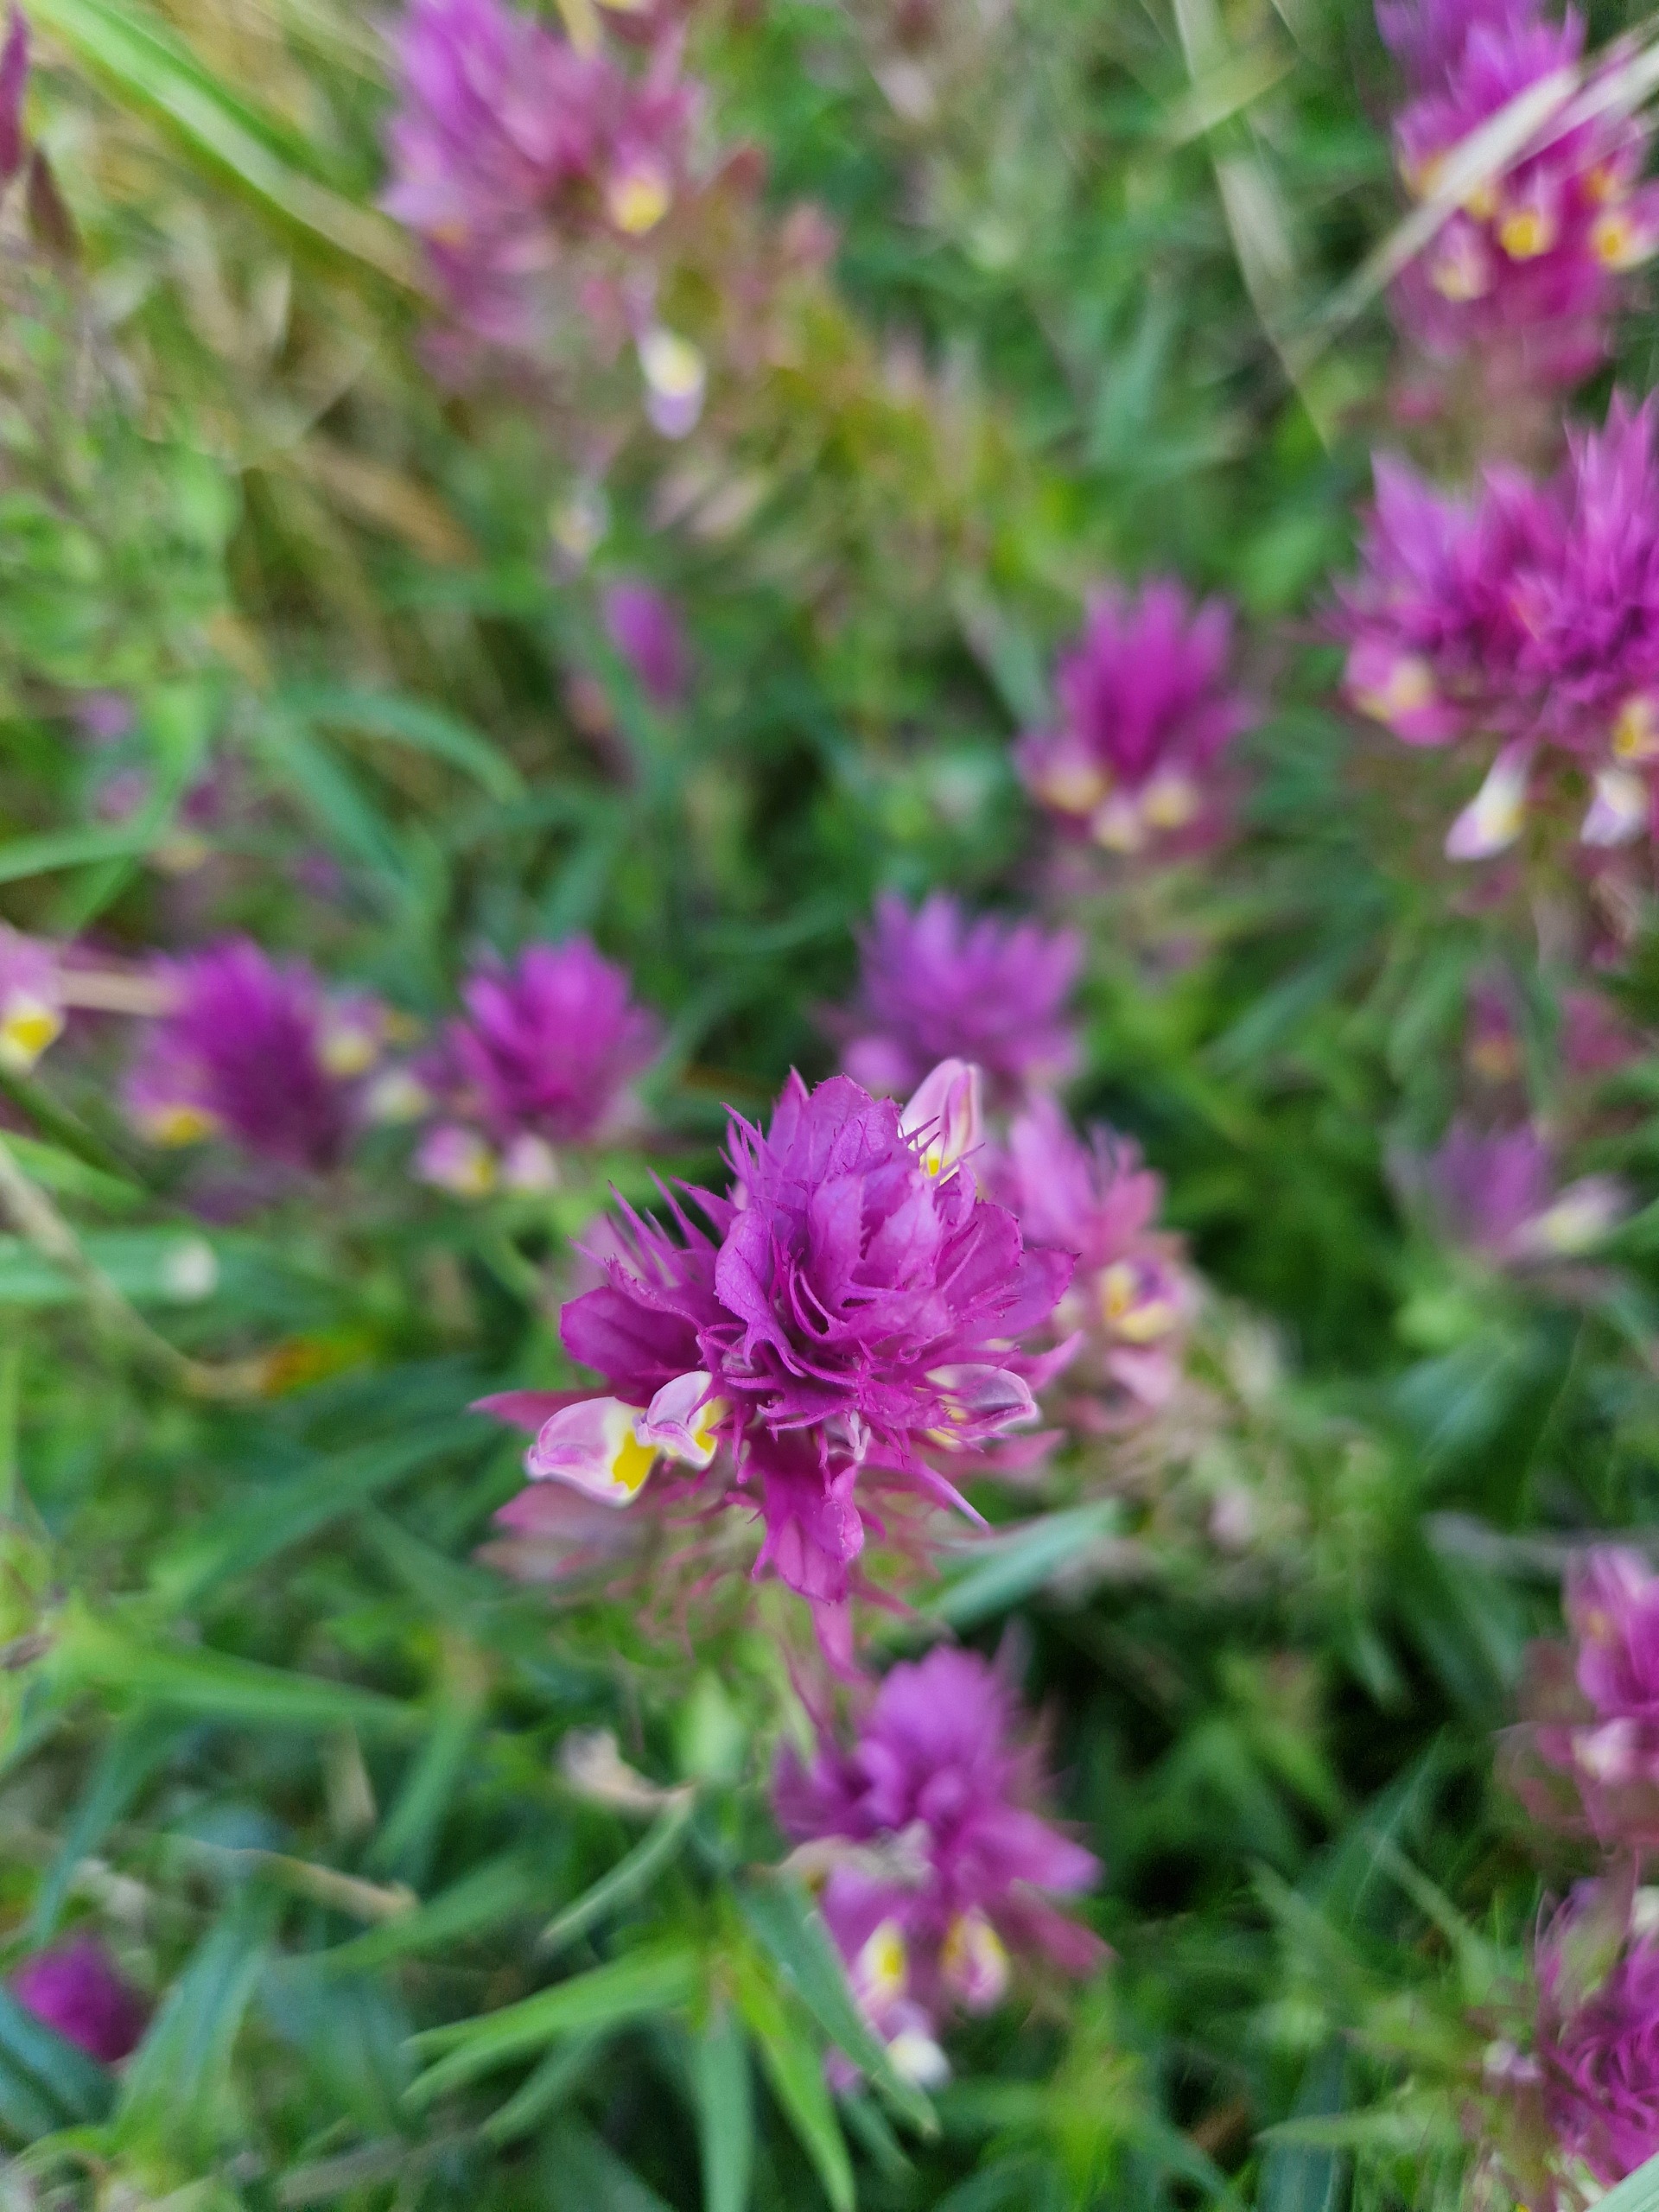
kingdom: Plantae
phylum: Tracheophyta
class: Magnoliopsida
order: Lamiales
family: Orobanchaceae
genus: Melampyrum
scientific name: Melampyrum arvense
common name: Ager-kohvede
